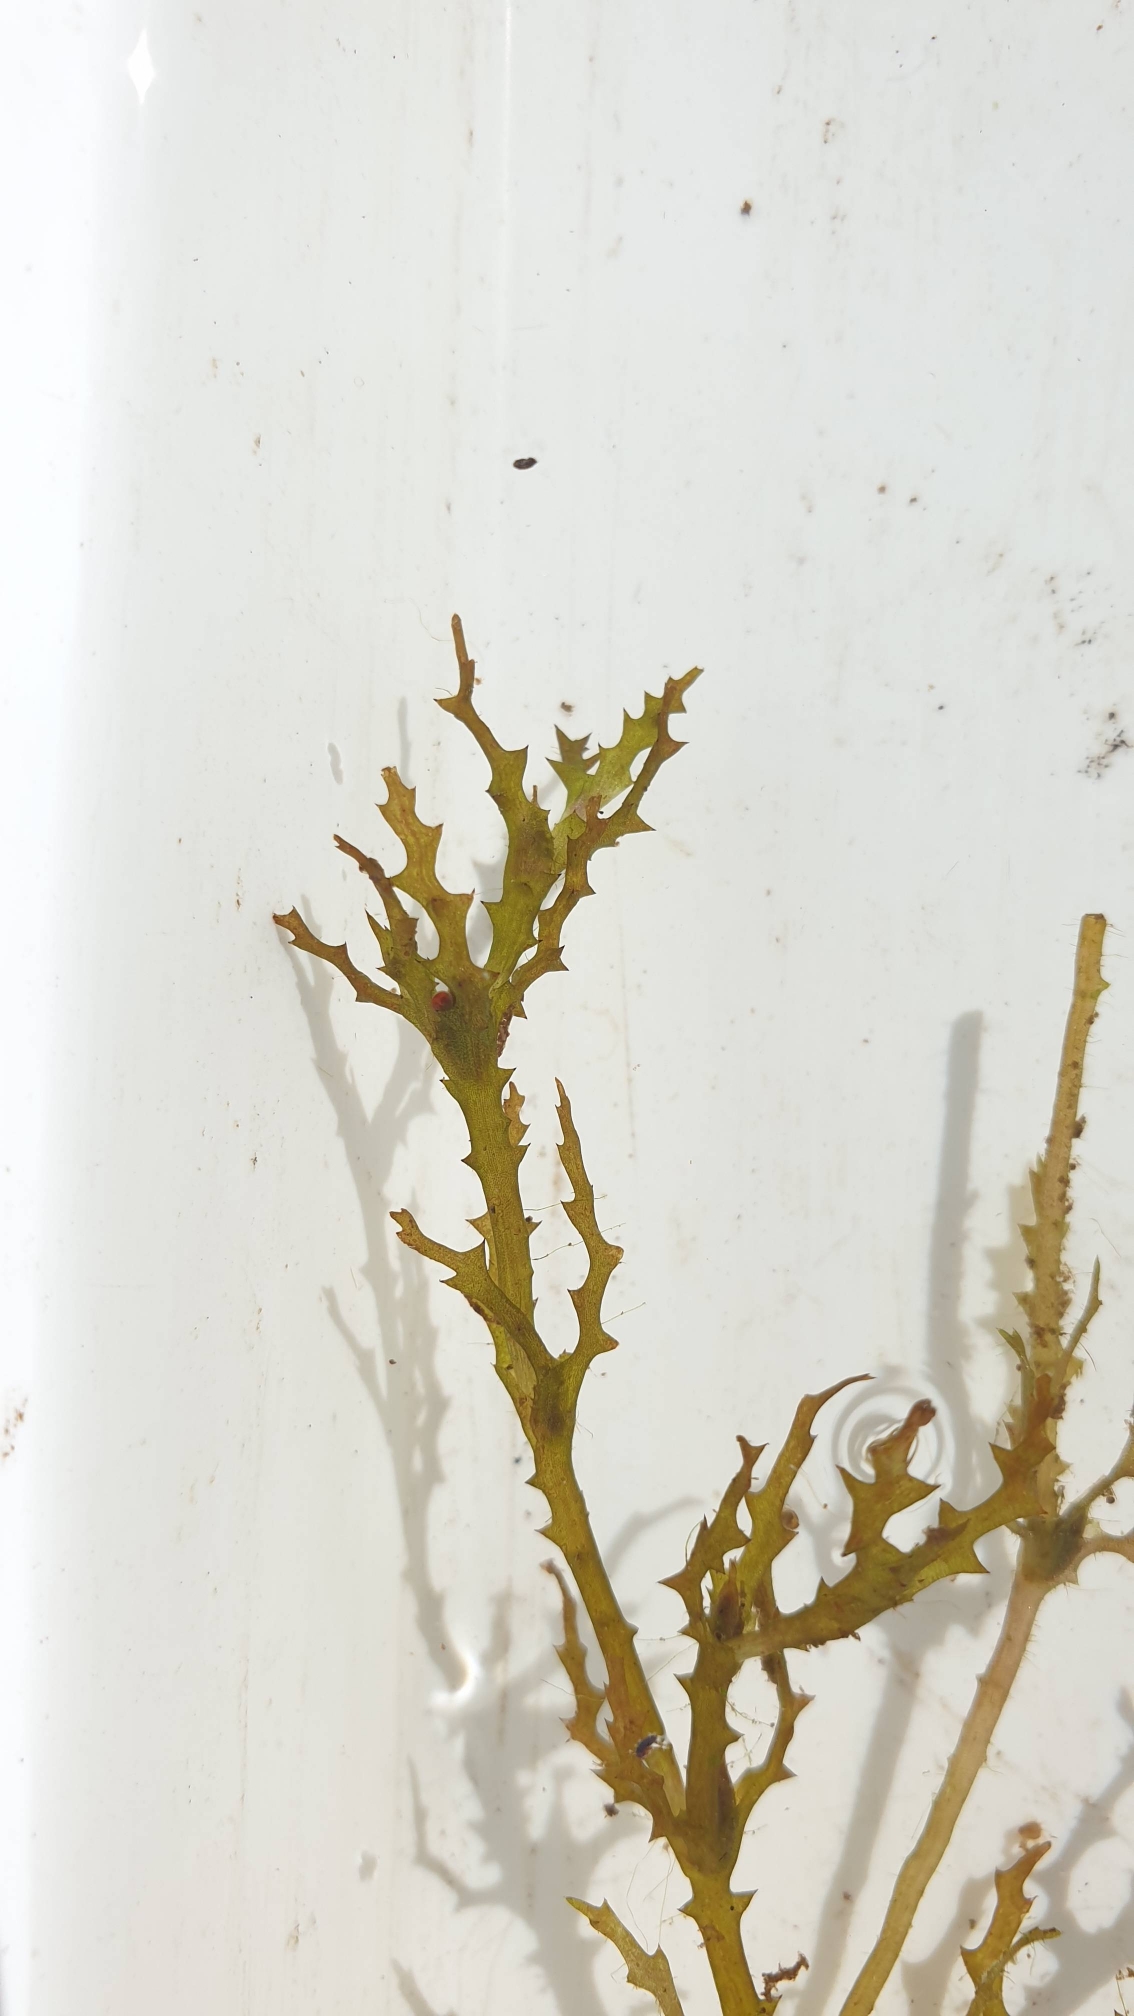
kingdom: Plantae
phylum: Tracheophyta
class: Liliopsida
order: Alismatales
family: Hydrocharitaceae
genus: Najas
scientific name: Najas marina
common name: Stor najade
